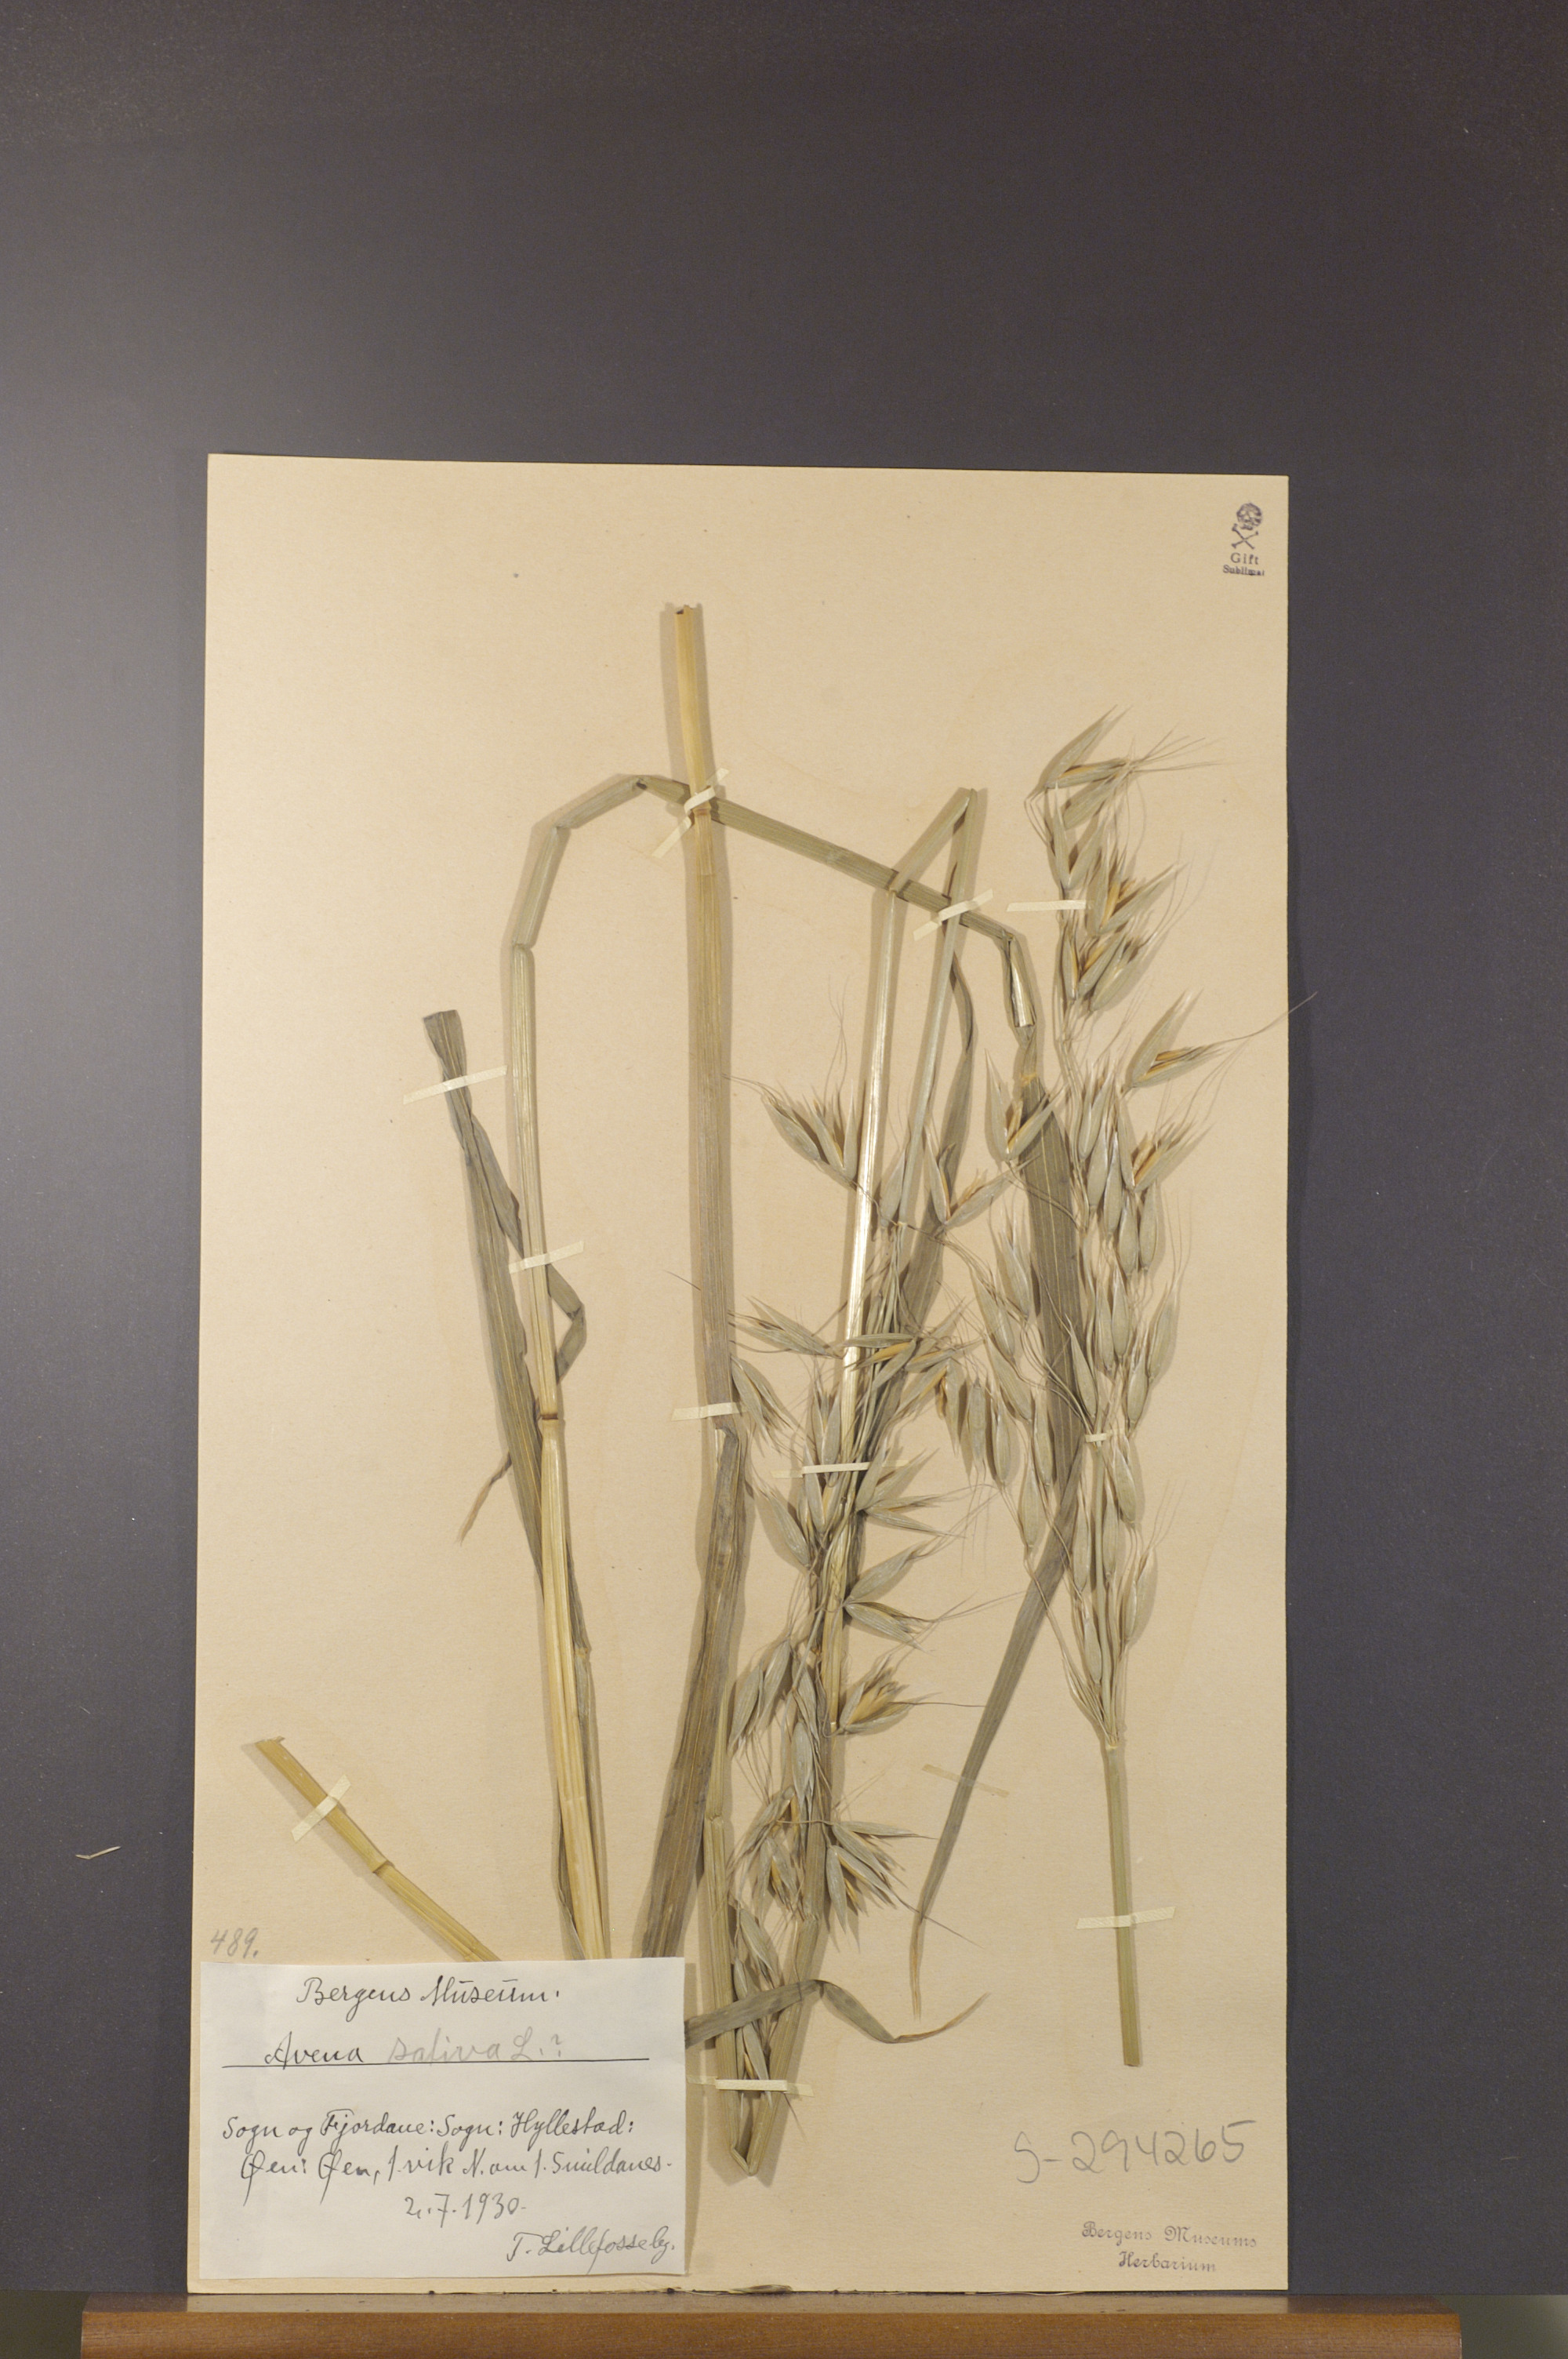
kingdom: Plantae
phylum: Tracheophyta
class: Liliopsida
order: Poales
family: Poaceae
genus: Avena
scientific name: Avena sativa
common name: Oat
